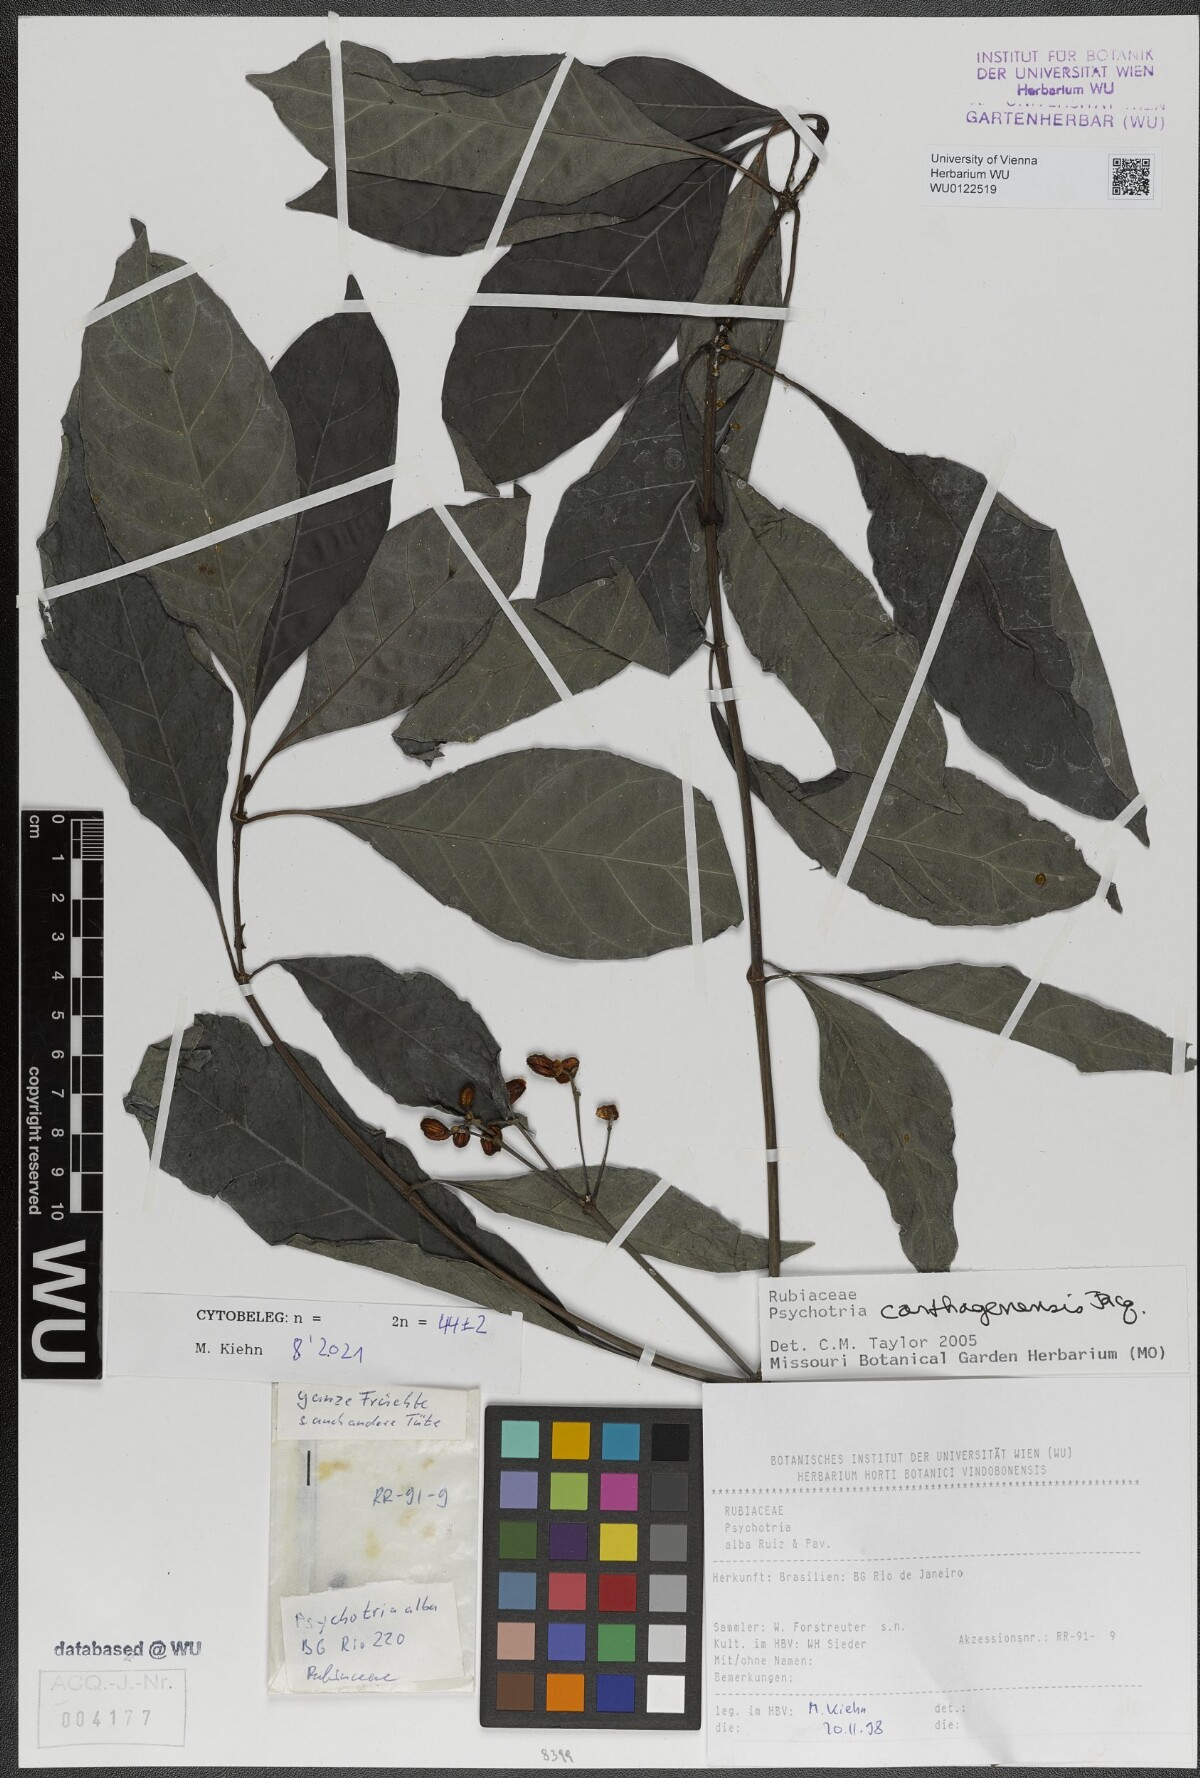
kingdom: Plantae
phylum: Tracheophyta
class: Magnoliopsida
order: Gentianales
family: Rubiaceae
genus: Psychotria
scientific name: Psychotria carthagenensis
